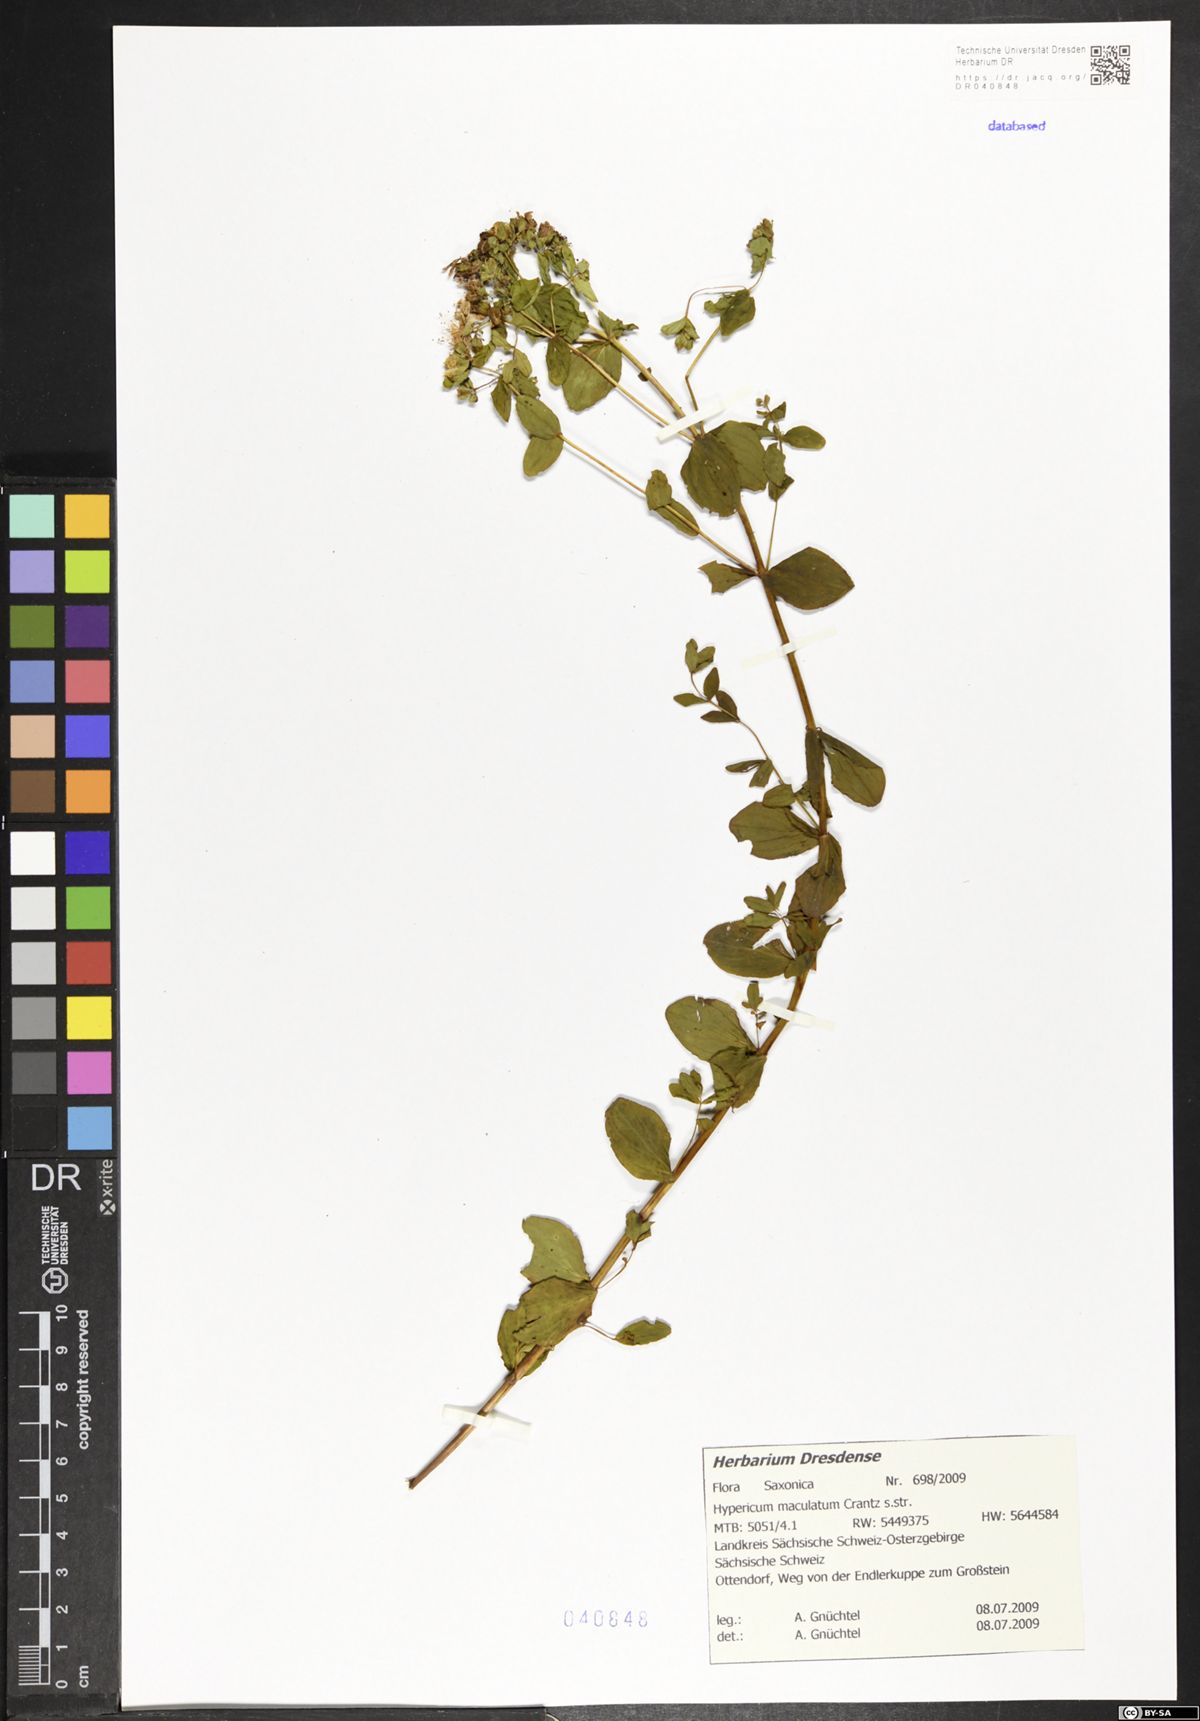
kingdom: Plantae
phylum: Tracheophyta
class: Magnoliopsida
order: Malpighiales
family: Hypericaceae
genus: Hypericum
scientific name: Hypericum maculatum
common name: Imperforate st. john's-wort
